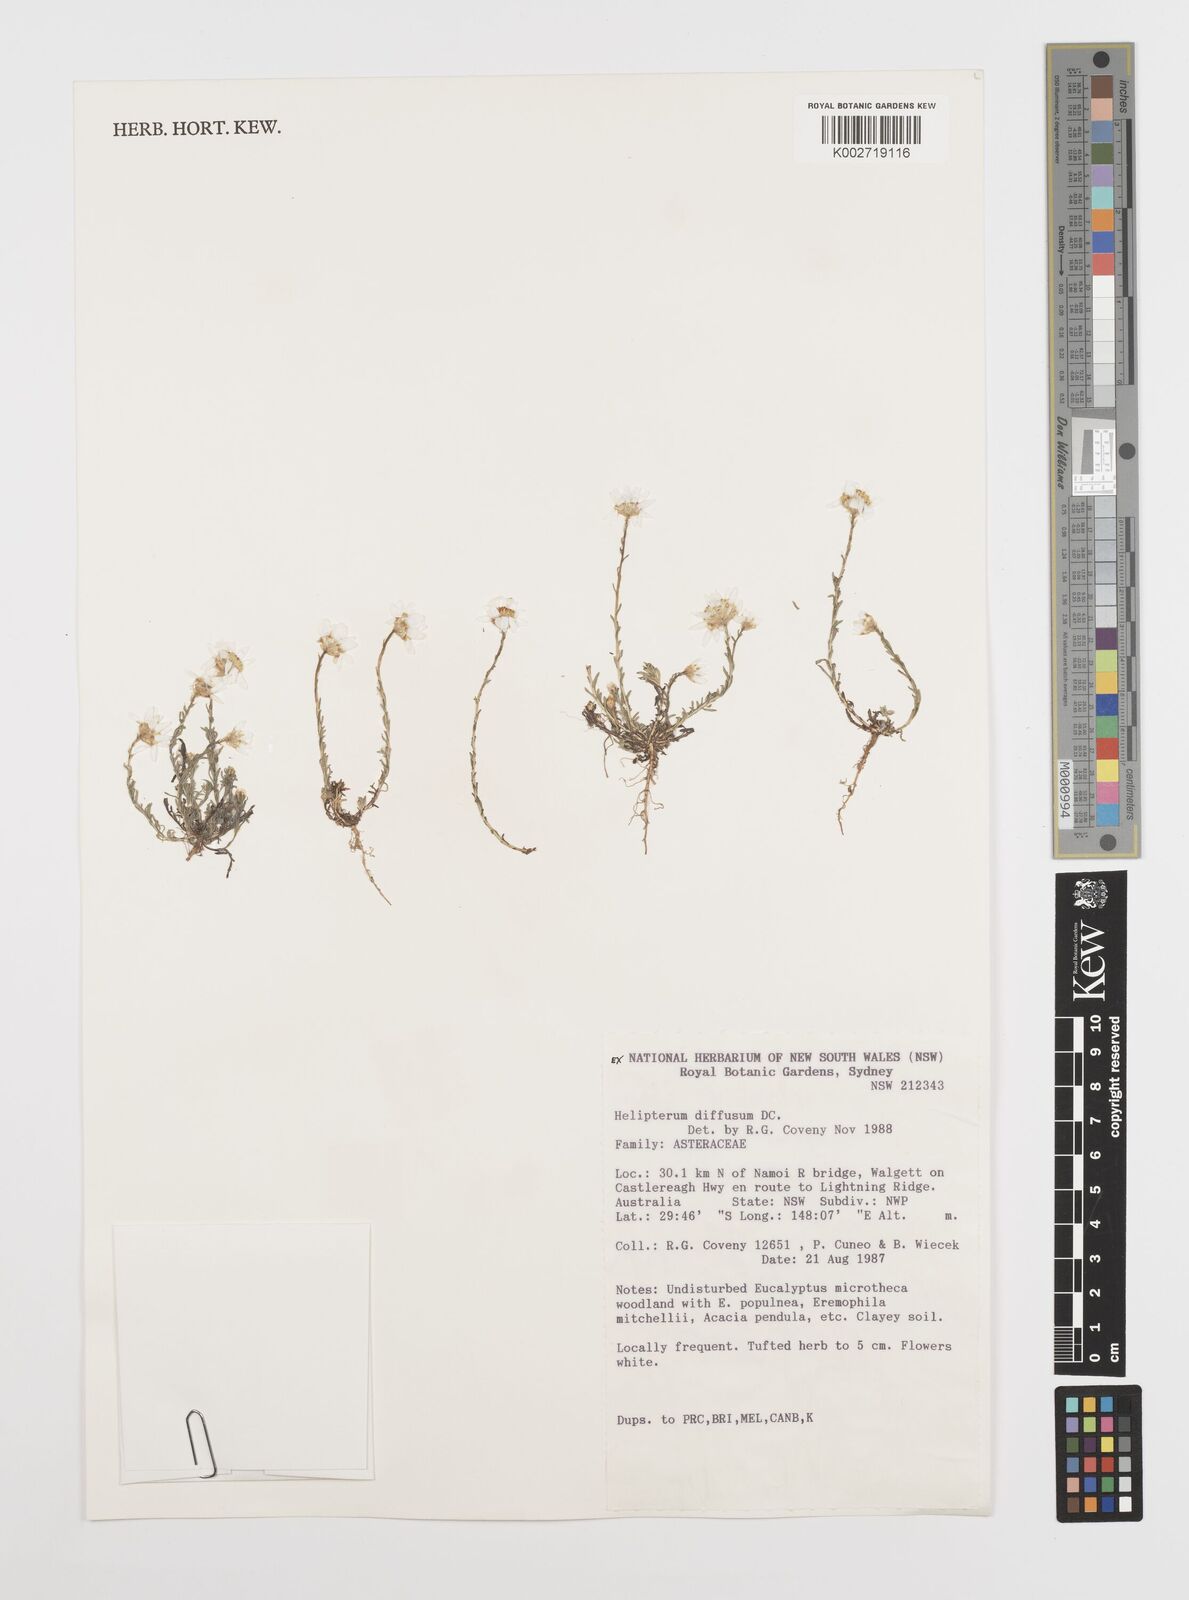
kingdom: Plantae
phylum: Tracheophyta
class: Magnoliopsida
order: Asterales
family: Asteraceae
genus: Rhodanthe
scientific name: Rhodanthe diffusa
